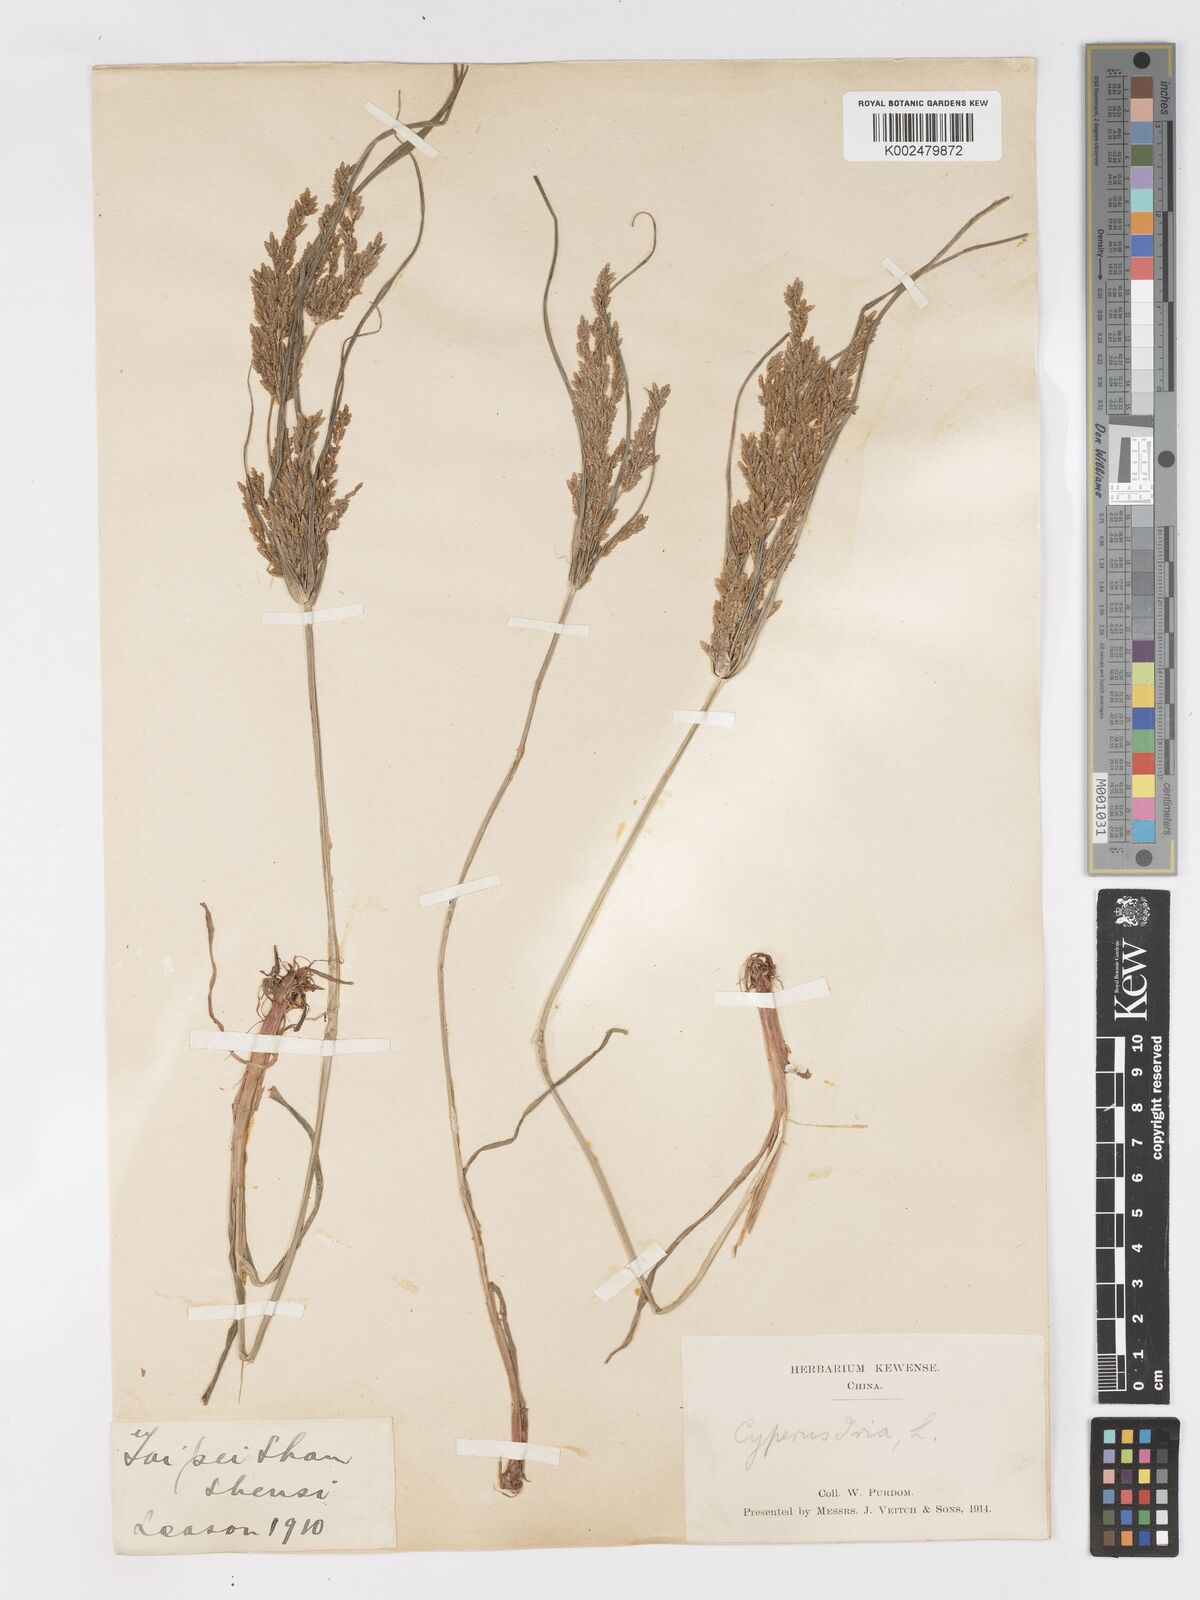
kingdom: Plantae
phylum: Tracheophyta
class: Liliopsida
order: Poales
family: Cyperaceae
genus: Cyperus
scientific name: Cyperus iria
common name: Ricefield flatsedge
